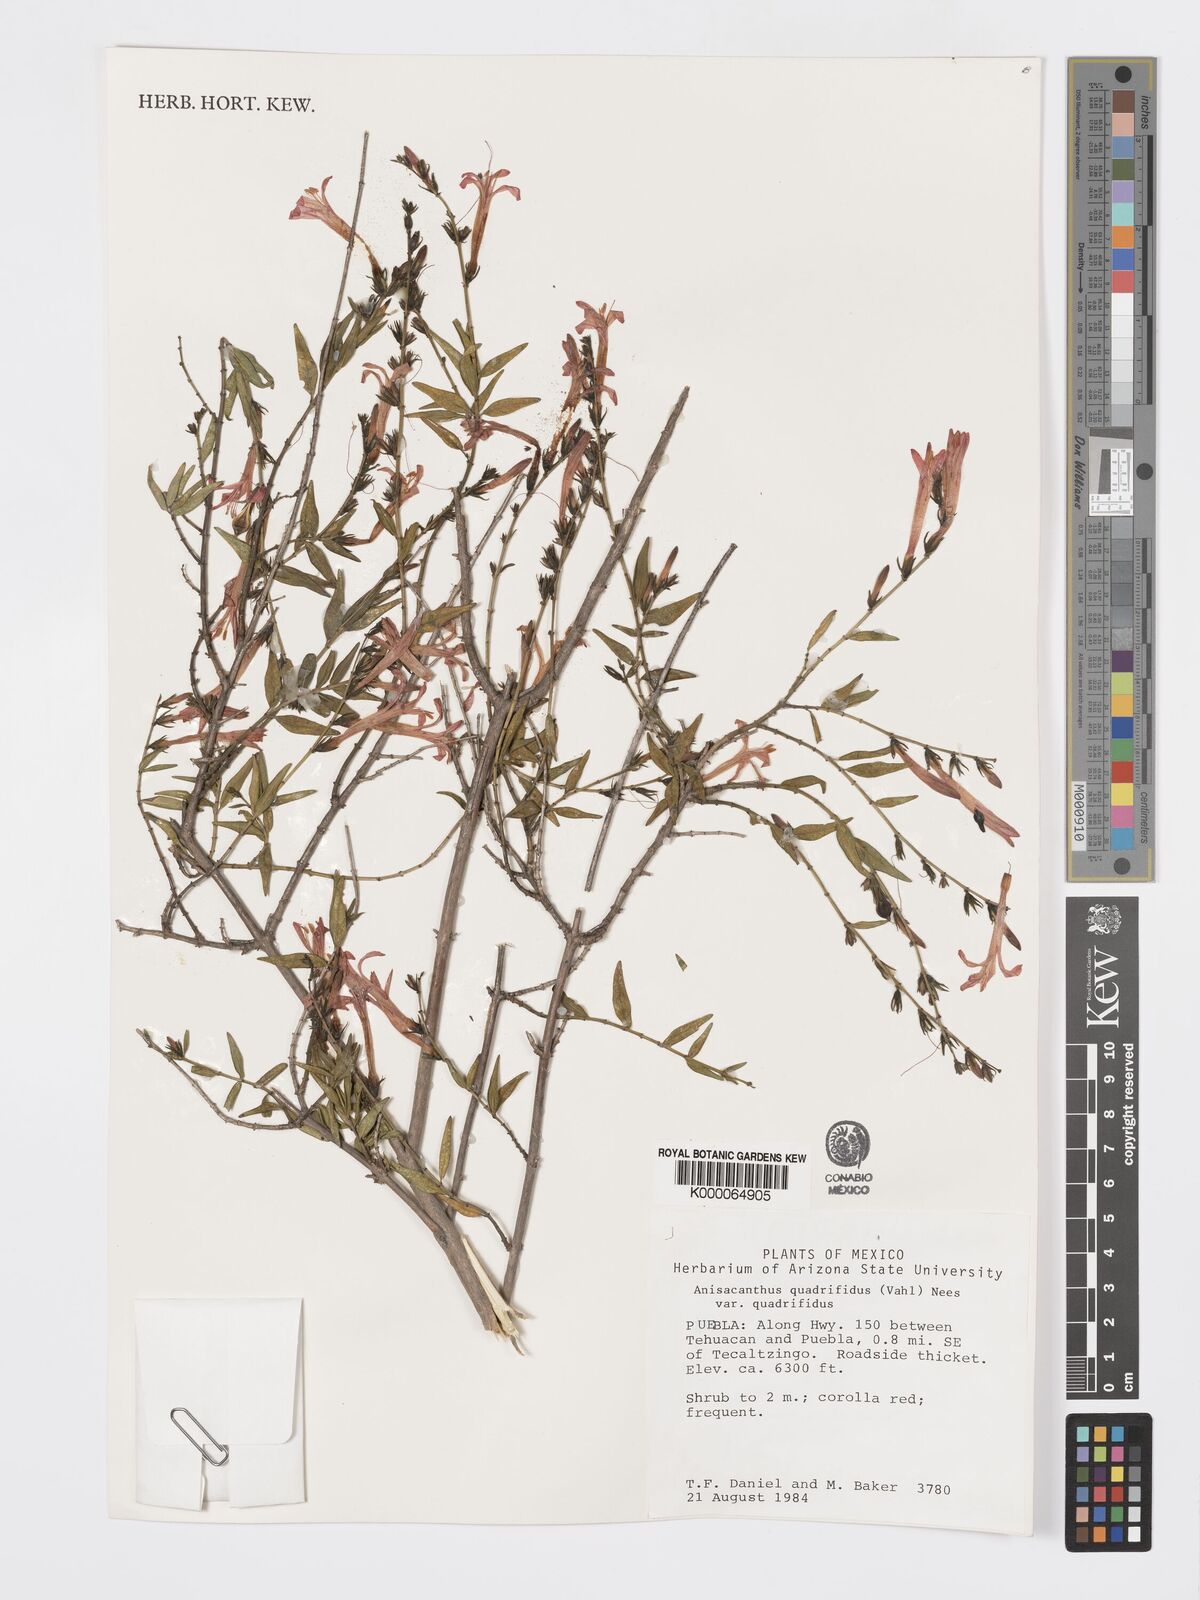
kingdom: Plantae
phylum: Tracheophyta
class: Magnoliopsida
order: Lamiales
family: Acanthaceae
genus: Anisacanthus
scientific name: Anisacanthus quadrifidus
